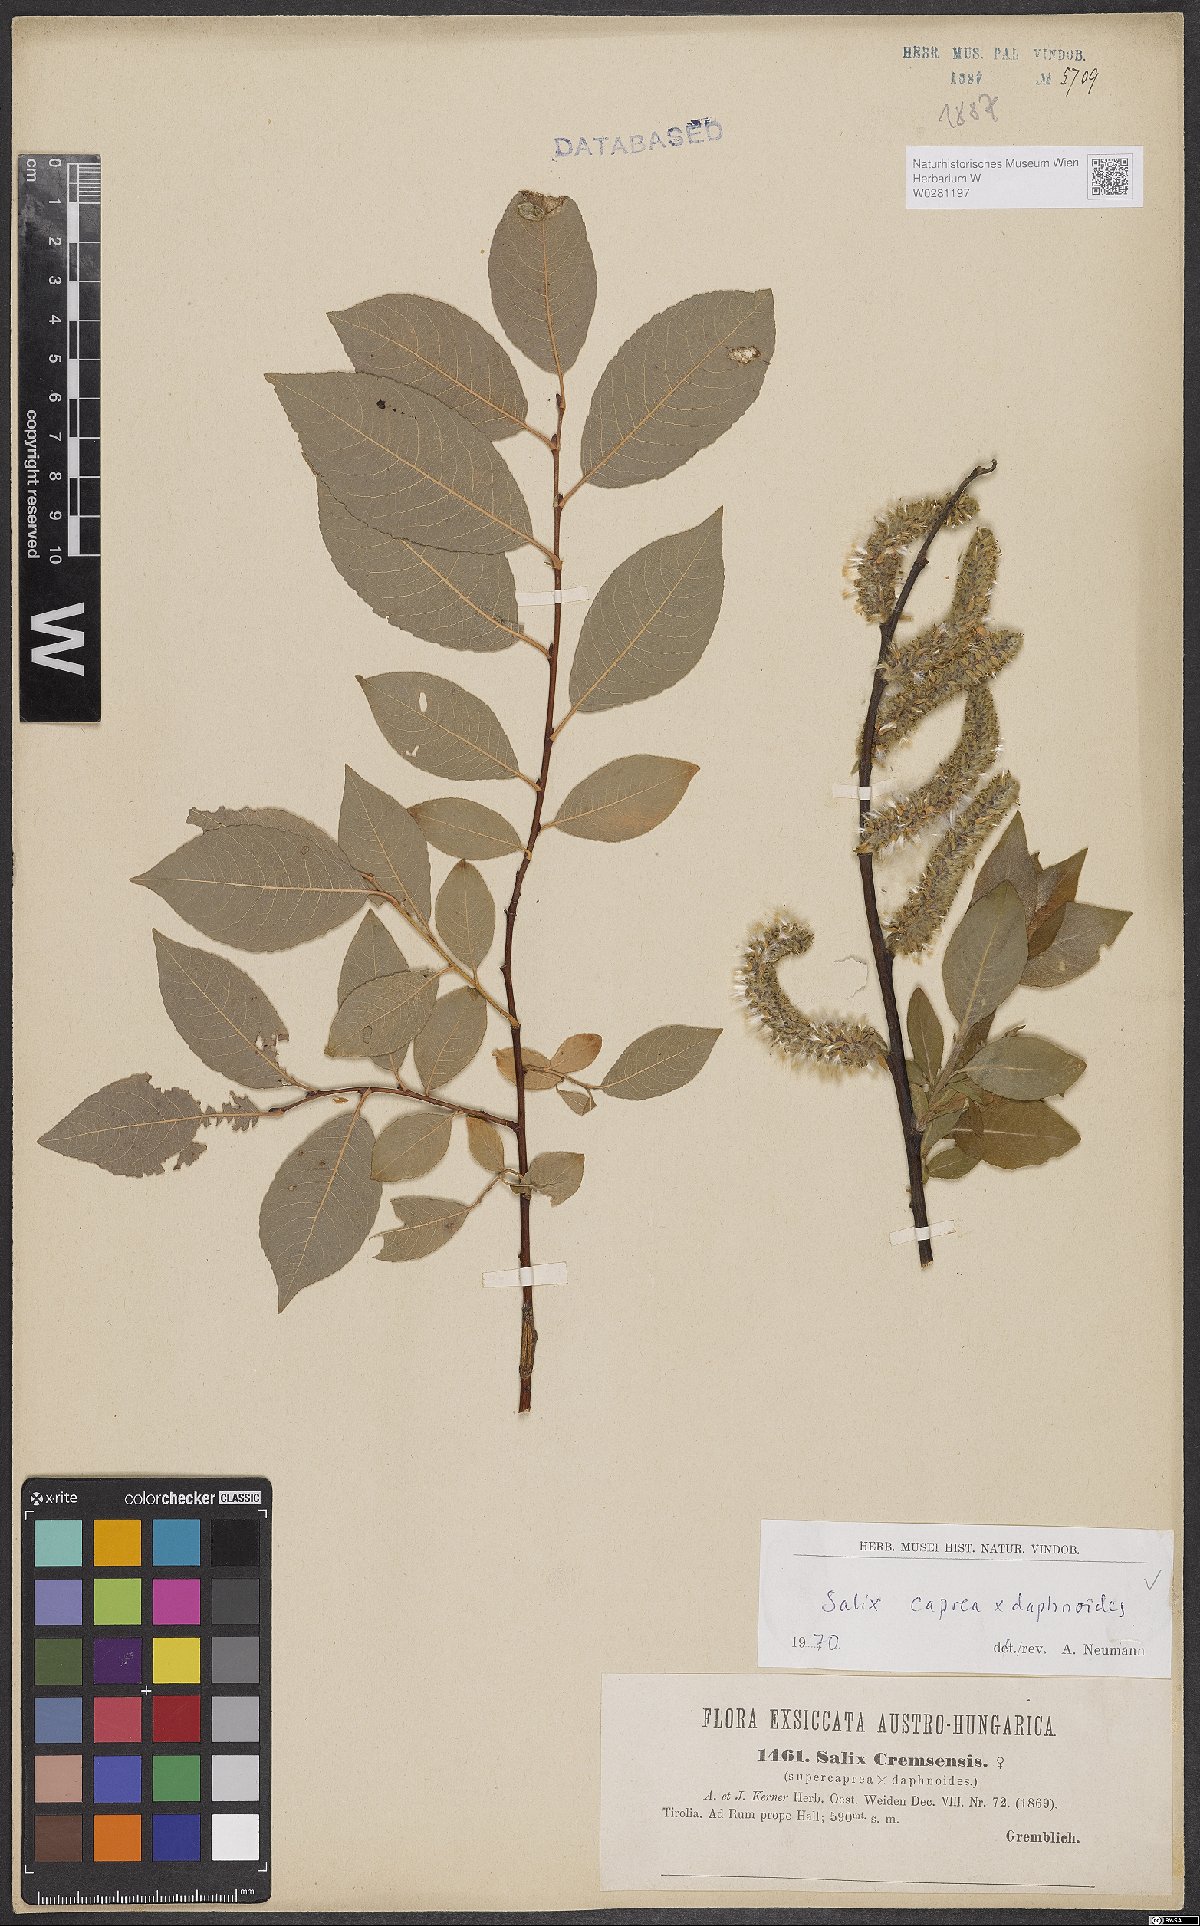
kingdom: Plantae
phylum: Tracheophyta
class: Magnoliopsida
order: Malpighiales
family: Salicaceae
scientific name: Salicaceae
